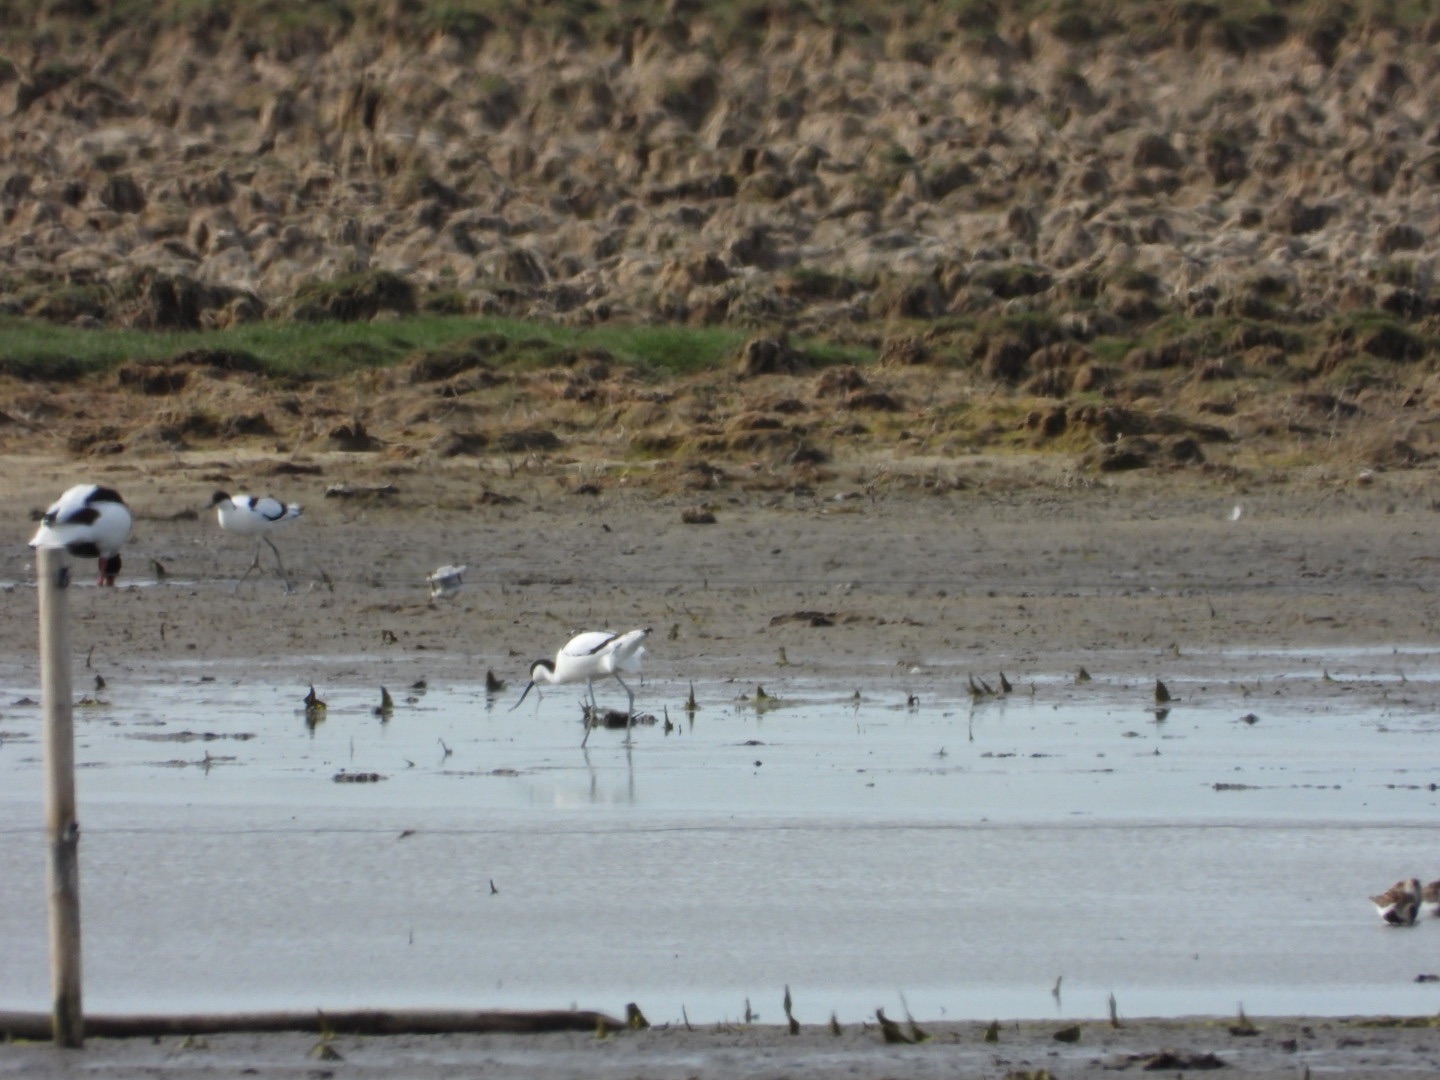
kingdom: Animalia
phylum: Chordata
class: Aves
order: Charadriiformes
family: Recurvirostridae
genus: Recurvirostra
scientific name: Recurvirostra avosetta
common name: Klyde
